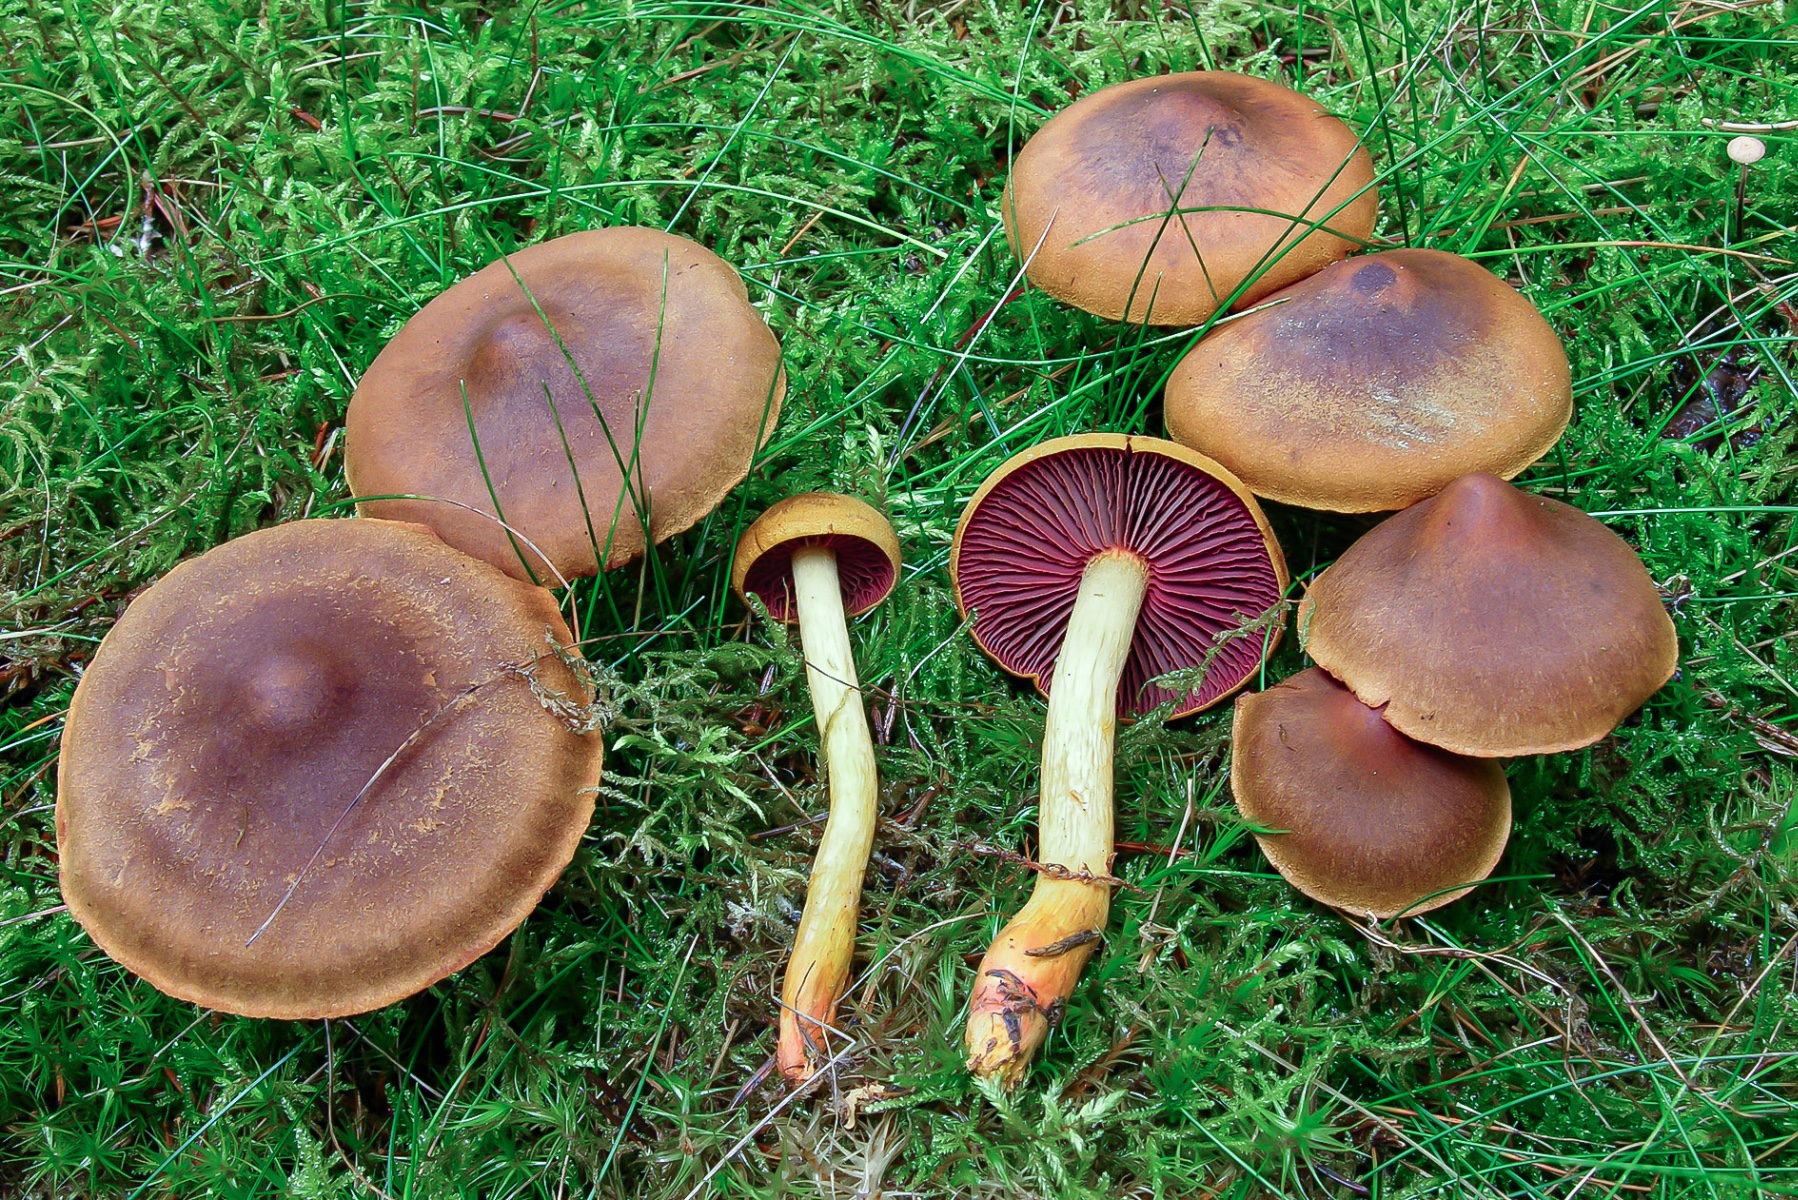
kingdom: Fungi
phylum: Basidiomycota
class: Agaricomycetes
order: Agaricales
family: Cortinariaceae
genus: Cortinarius
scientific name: Cortinarius ominosus
